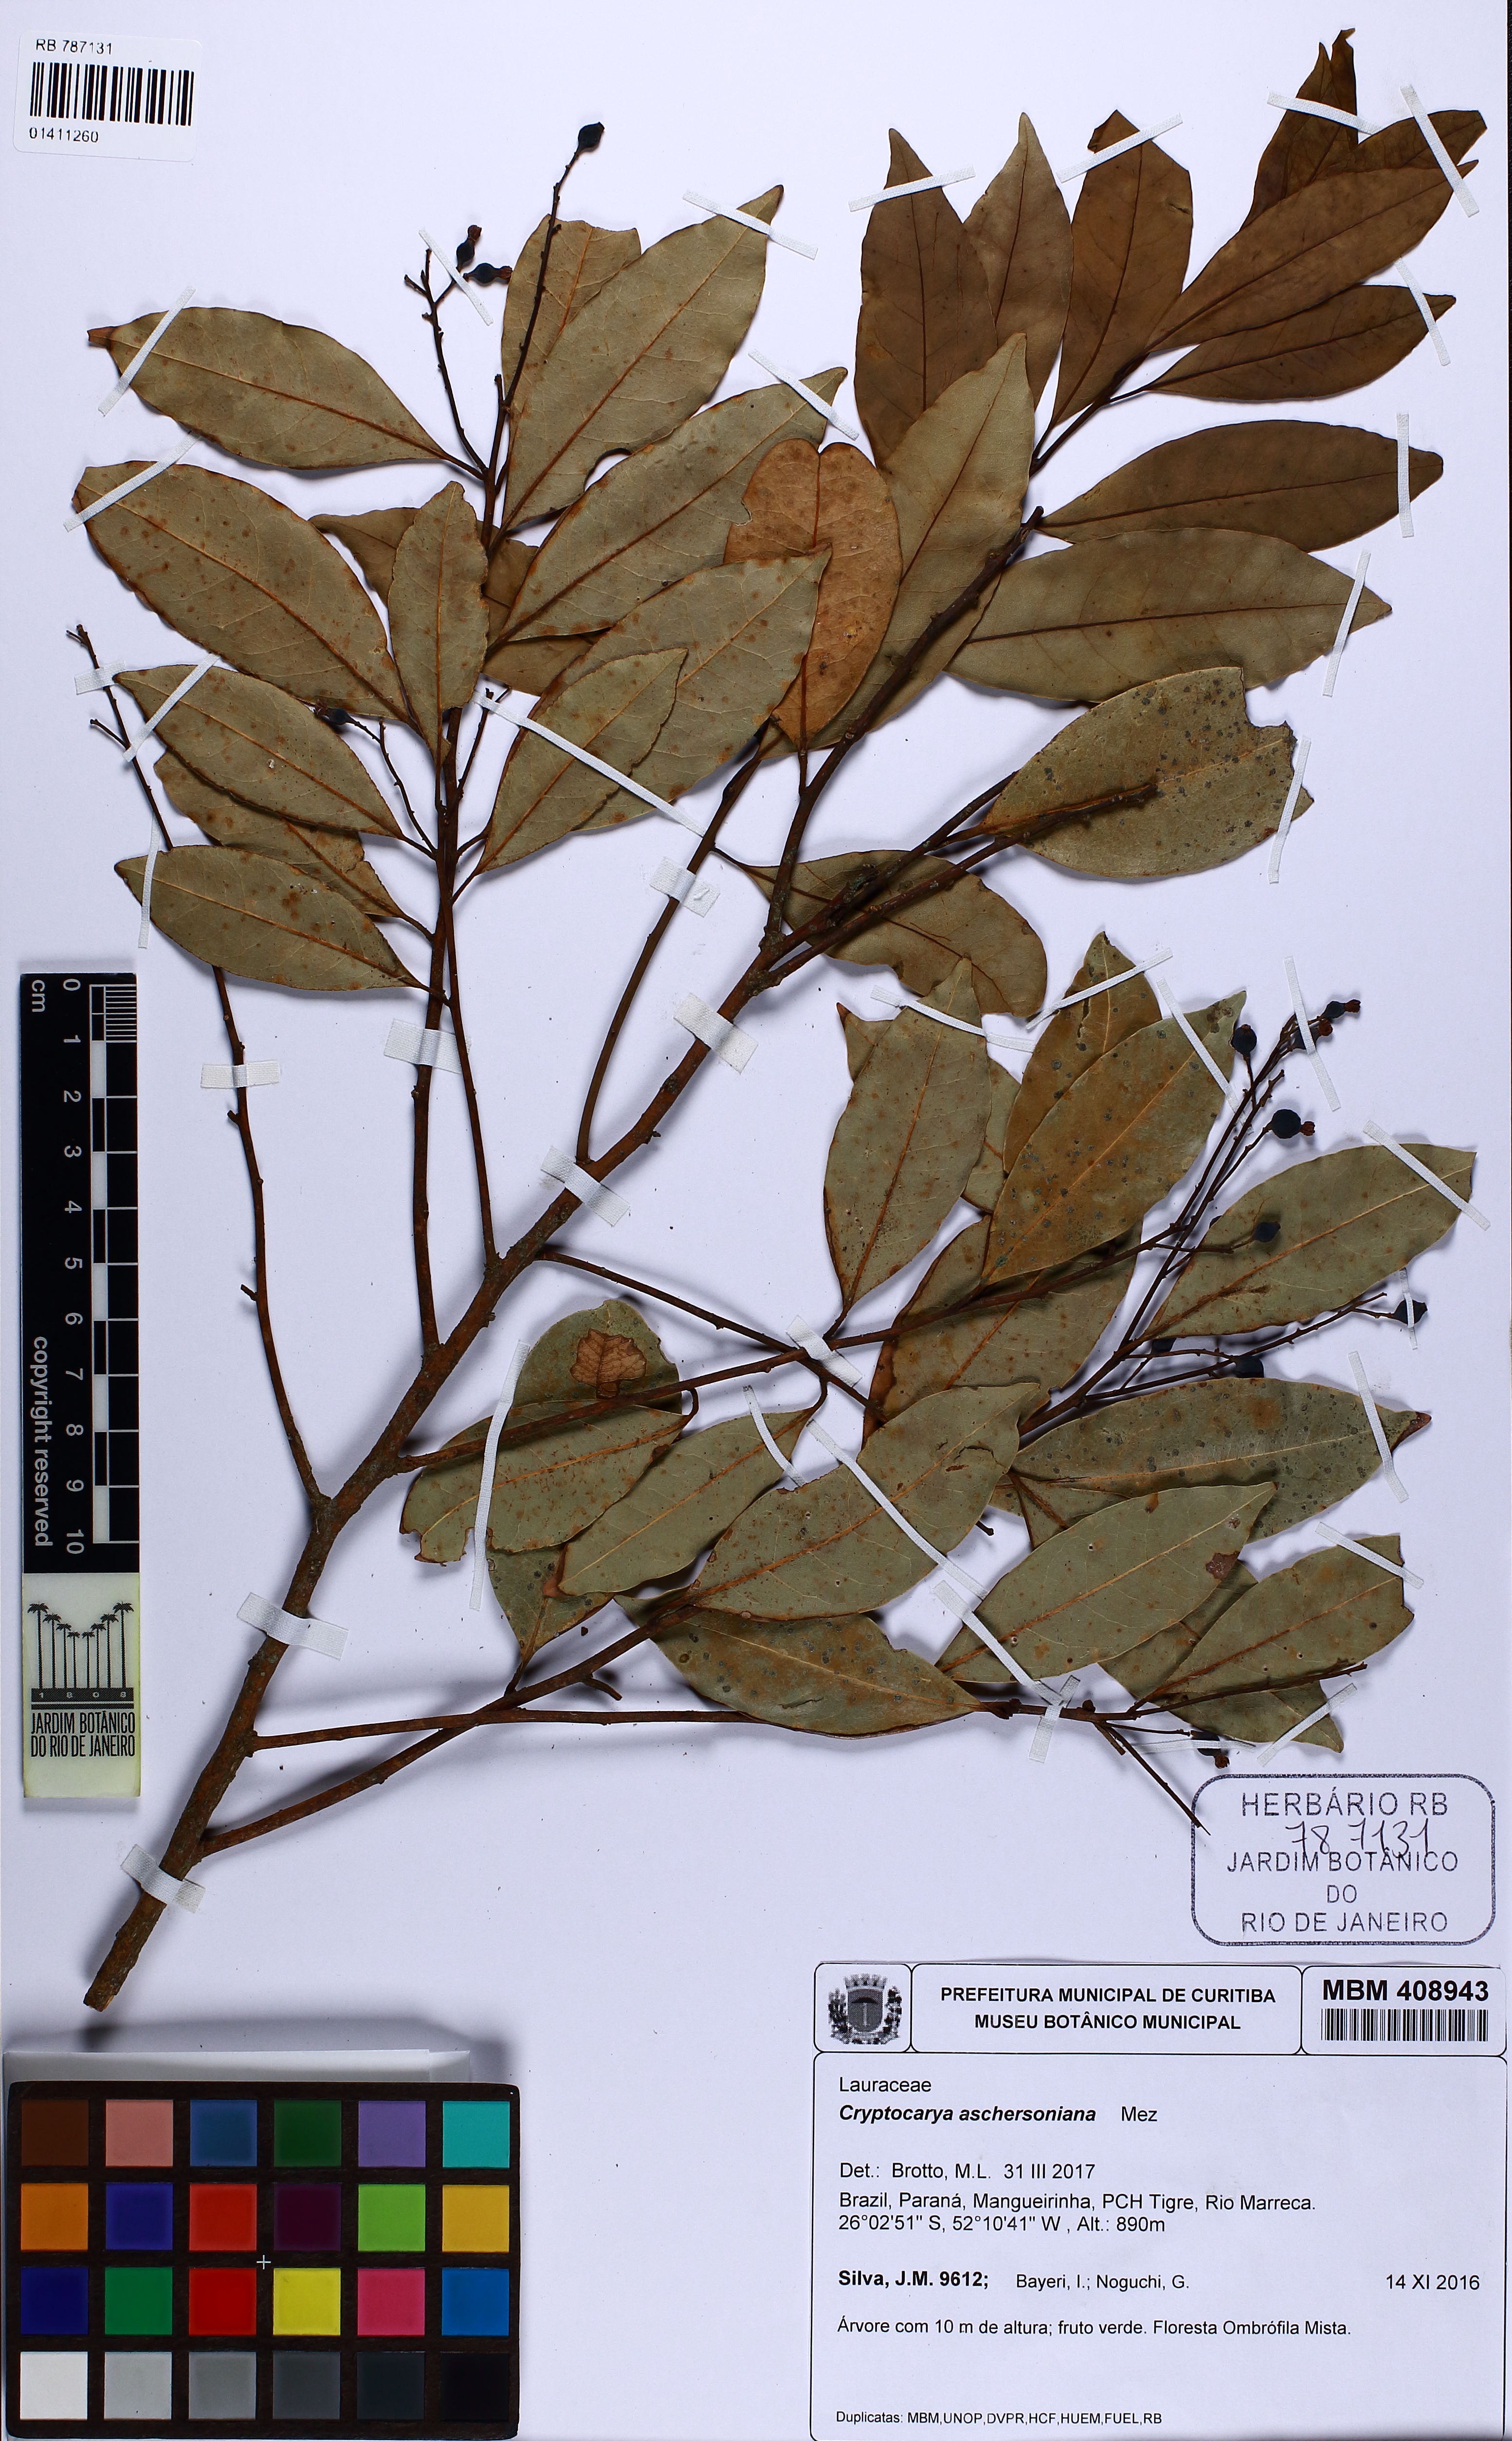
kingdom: Plantae
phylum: Tracheophyta
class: Magnoliopsida
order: Laurales
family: Lauraceae
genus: Cryptocarya
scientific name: Cryptocarya aschersoniana
